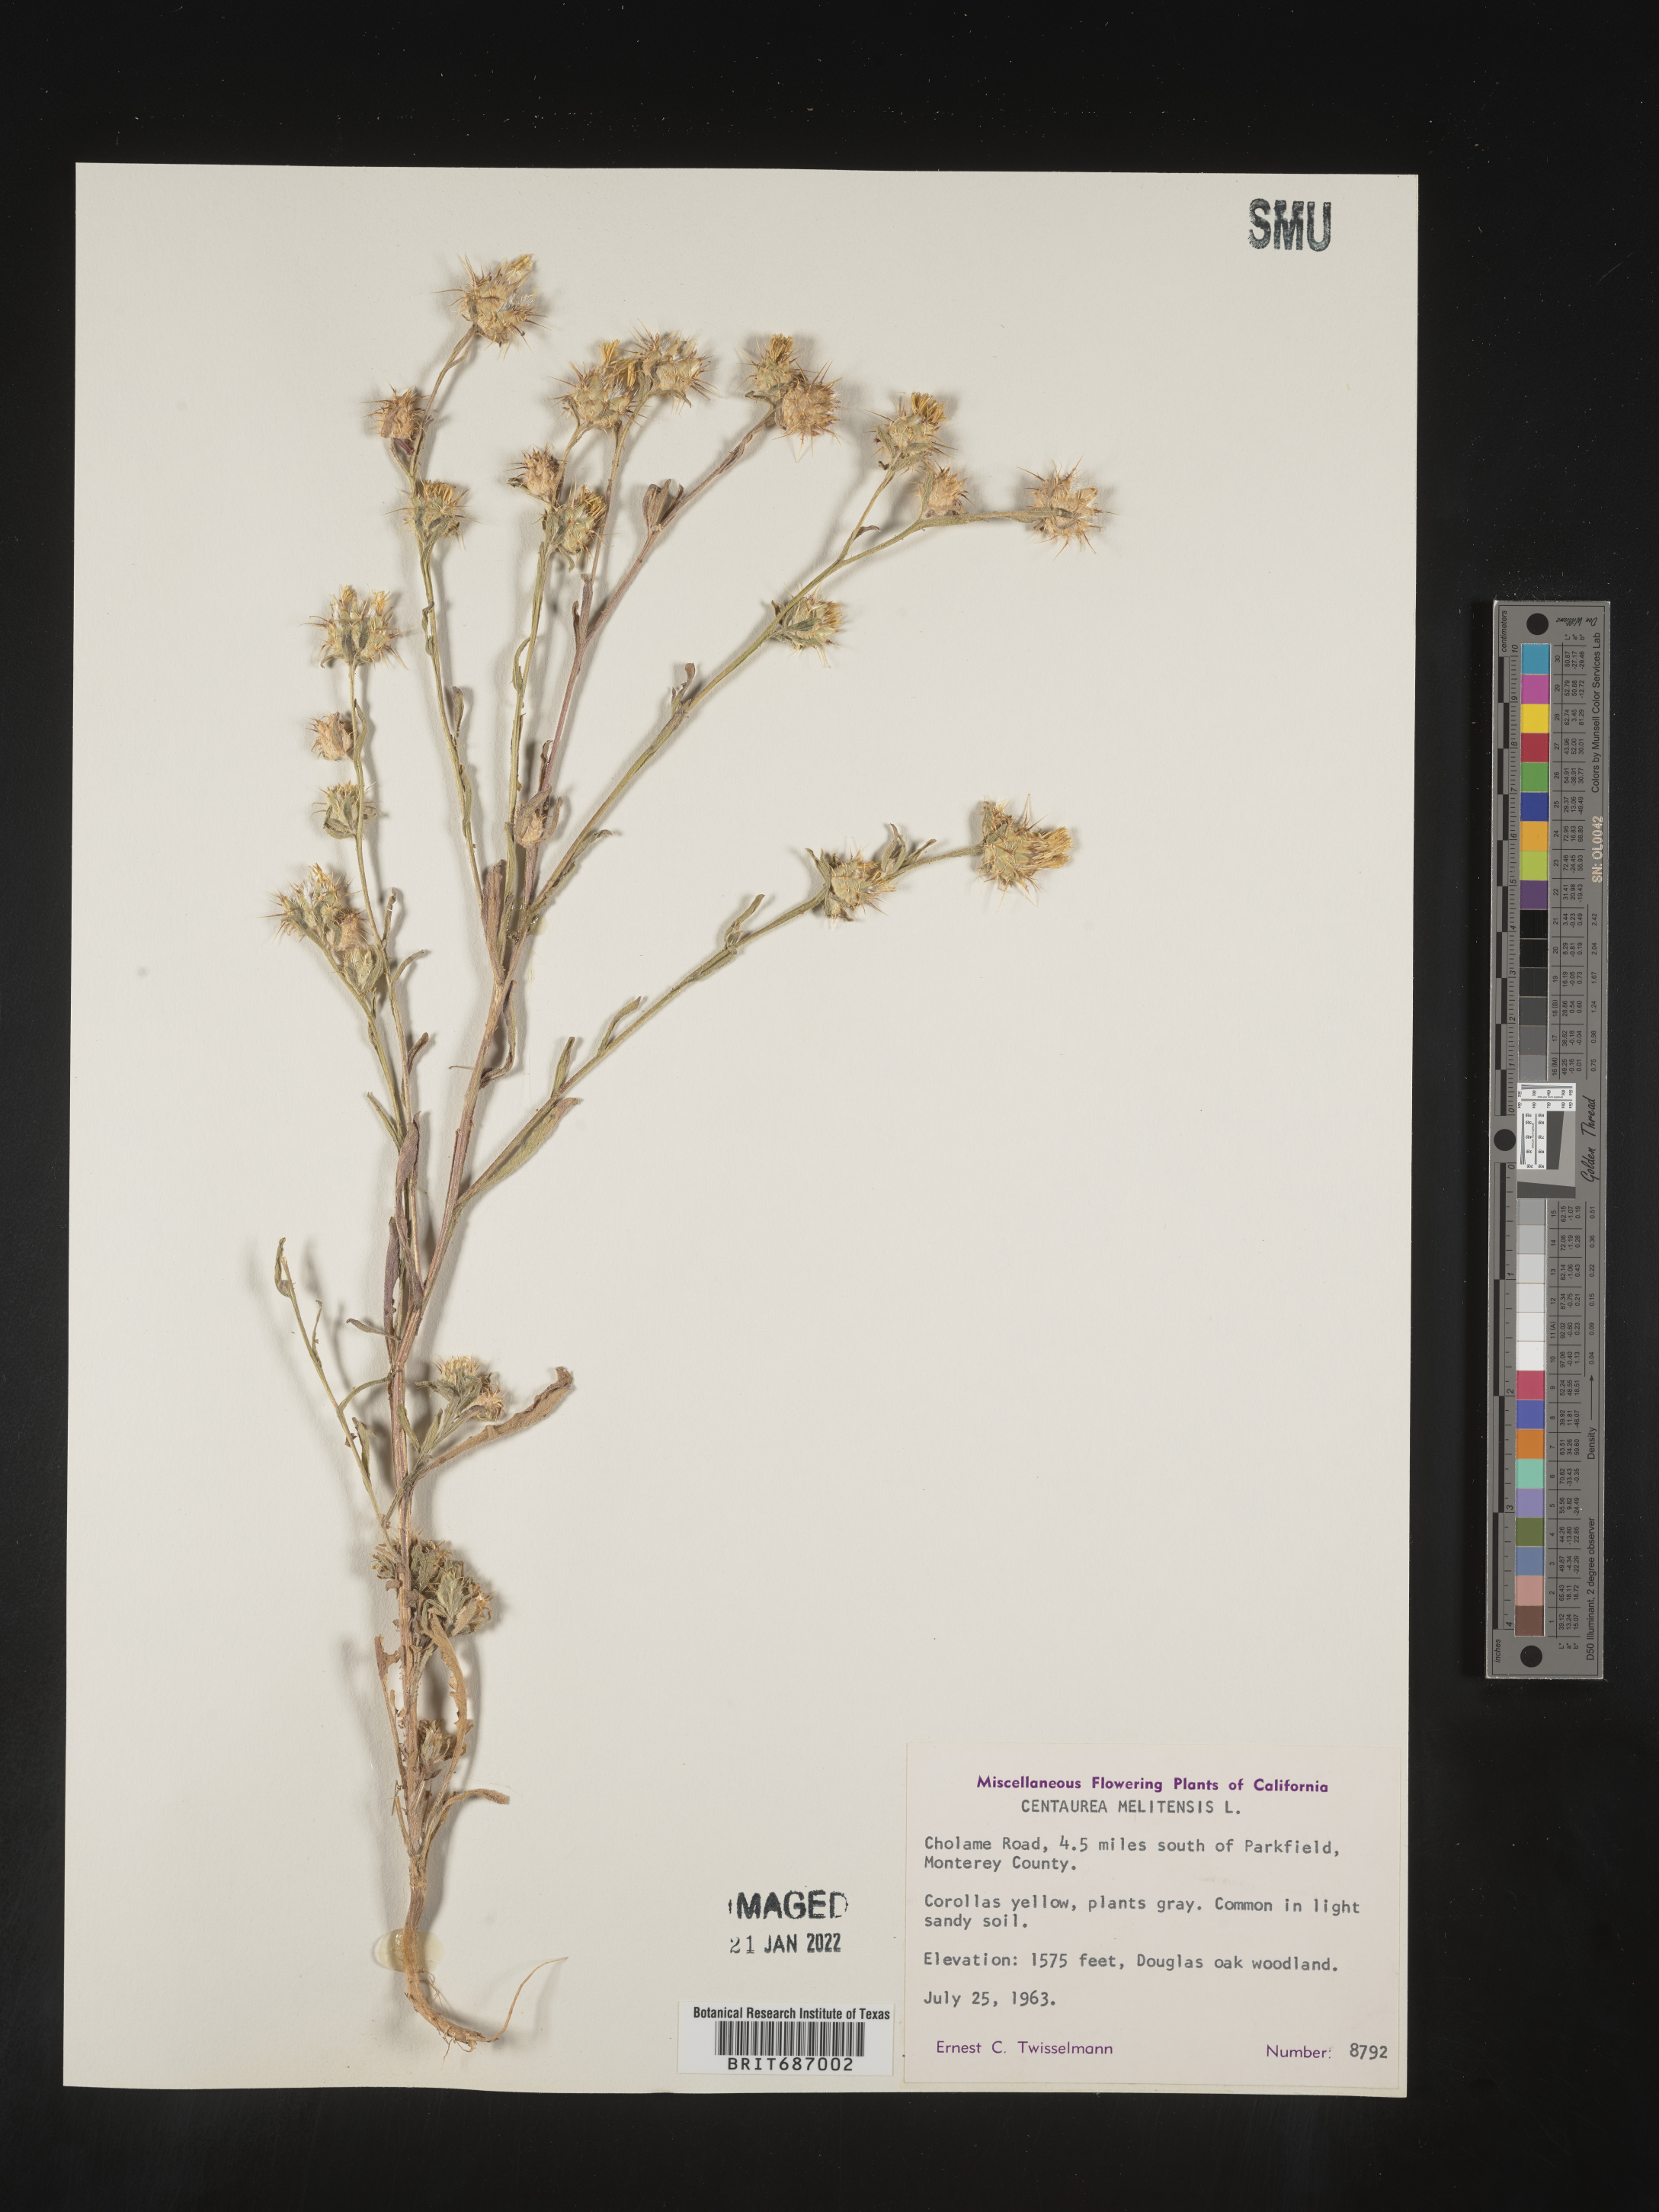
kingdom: Plantae
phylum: Tracheophyta
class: Magnoliopsida
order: Asterales
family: Asteraceae
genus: Centaurea
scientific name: Centaurea melitensis
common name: Maltese star-thistle
